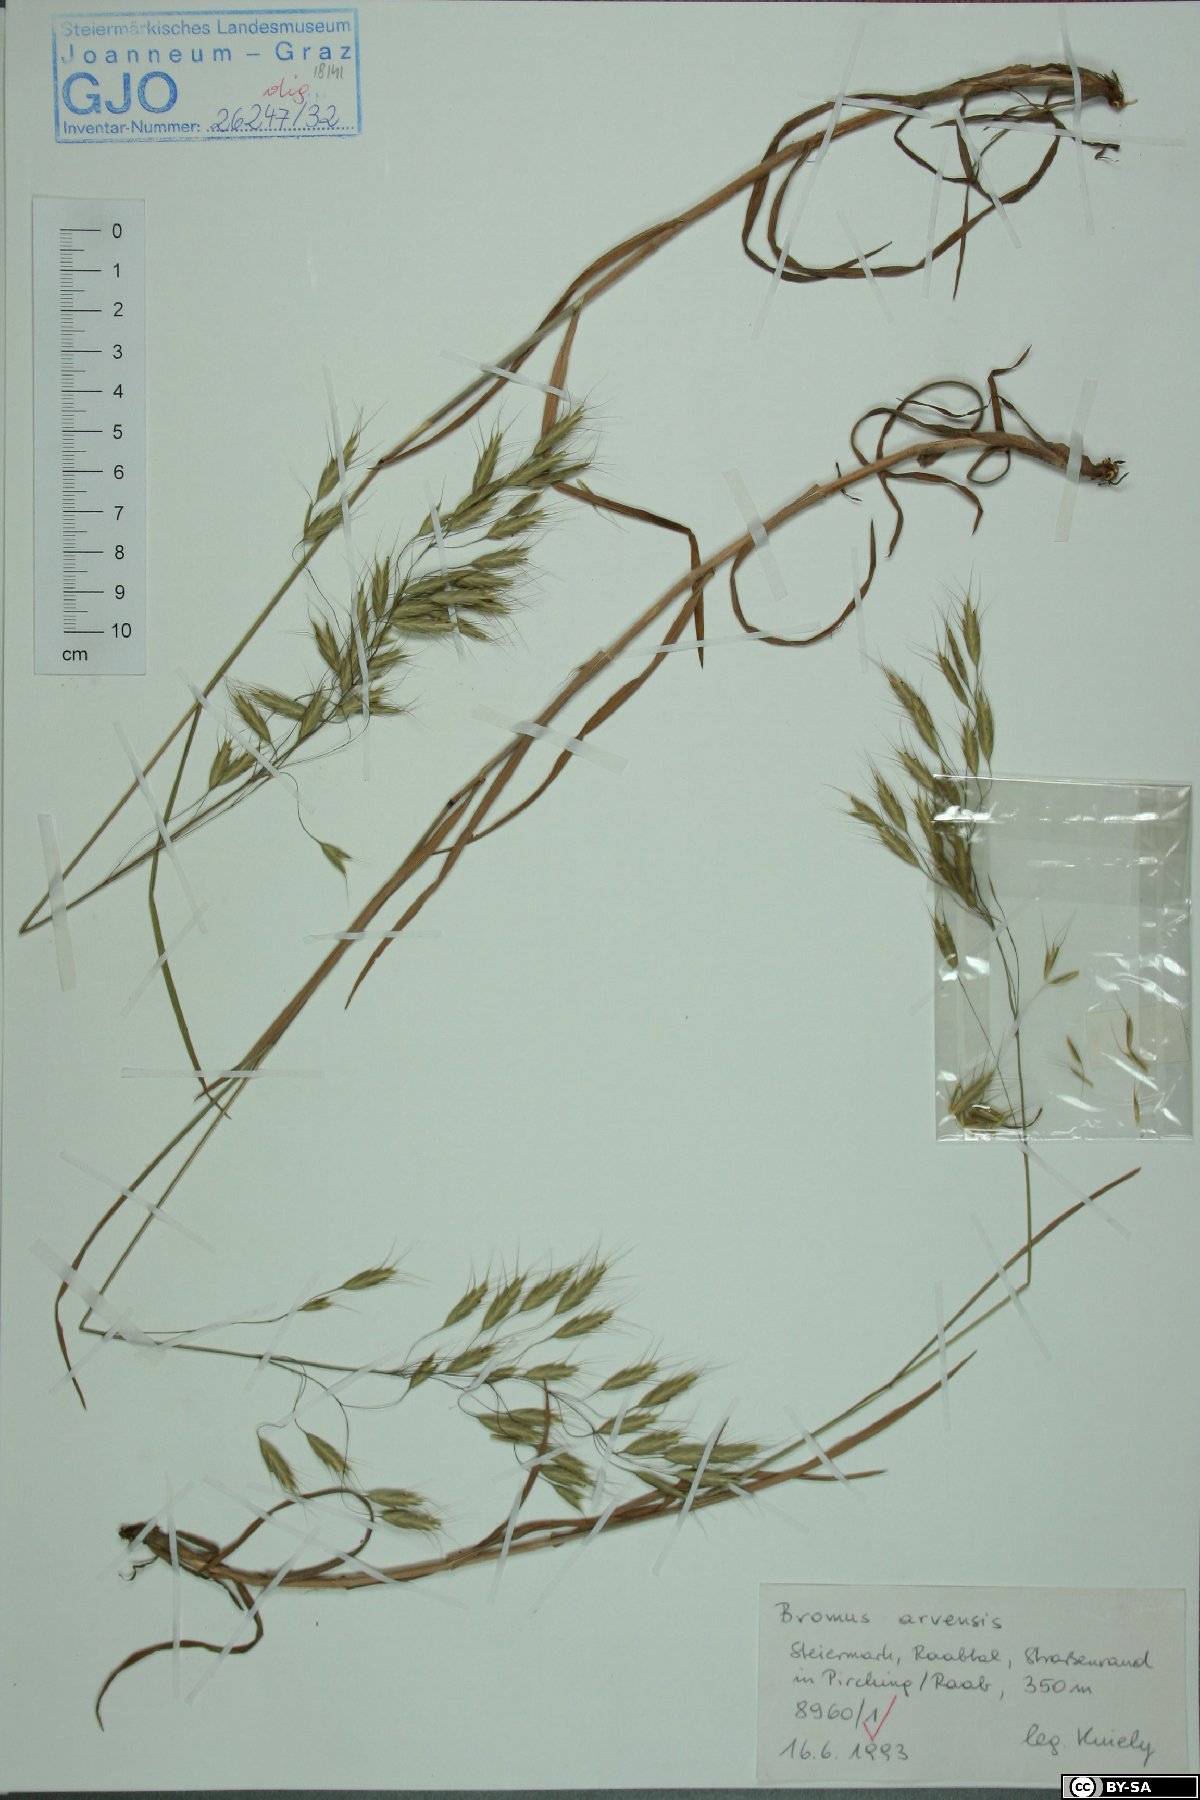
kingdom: Plantae
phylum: Tracheophyta
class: Liliopsida
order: Poales
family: Poaceae
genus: Bromus
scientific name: Bromus arvensis
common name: Field brome
